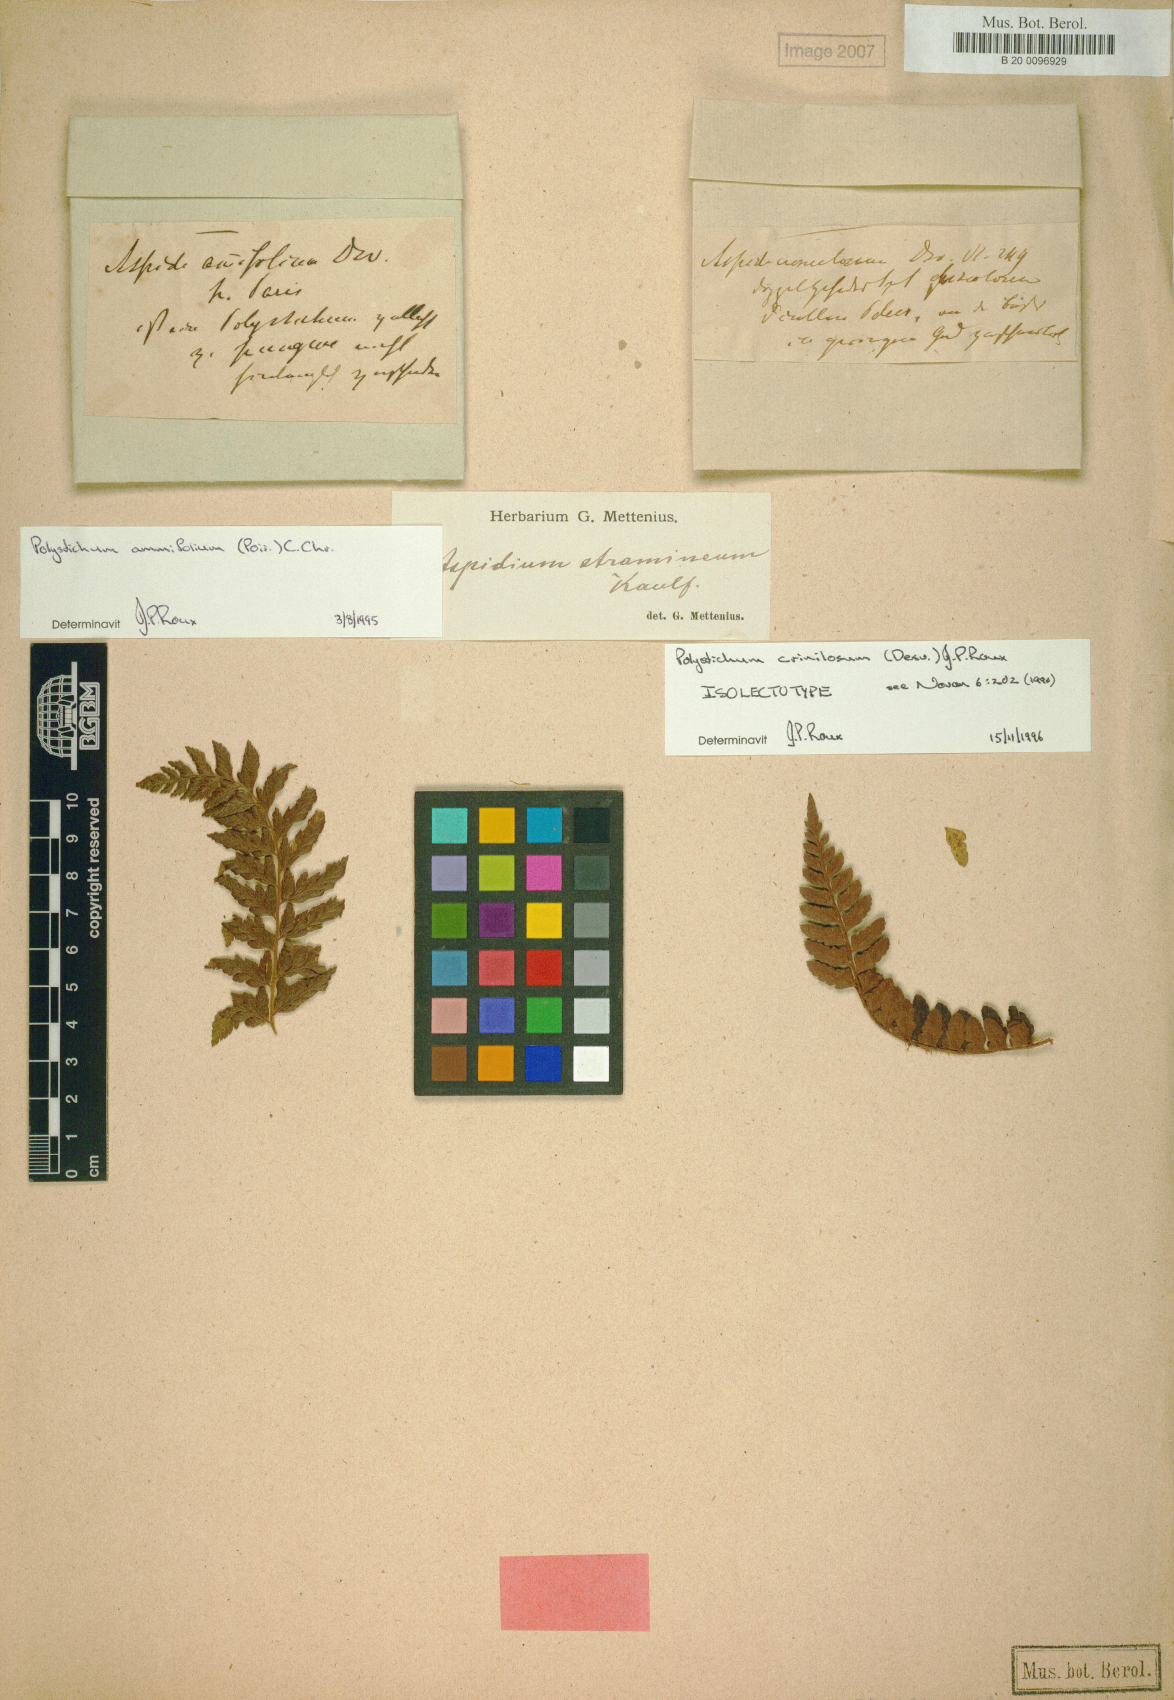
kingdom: Plantae
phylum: Tracheophyta
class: Polypodiopsida
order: Polypodiales
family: Dryopteridaceae
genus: Polystichum
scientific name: Polystichum crinulosum
